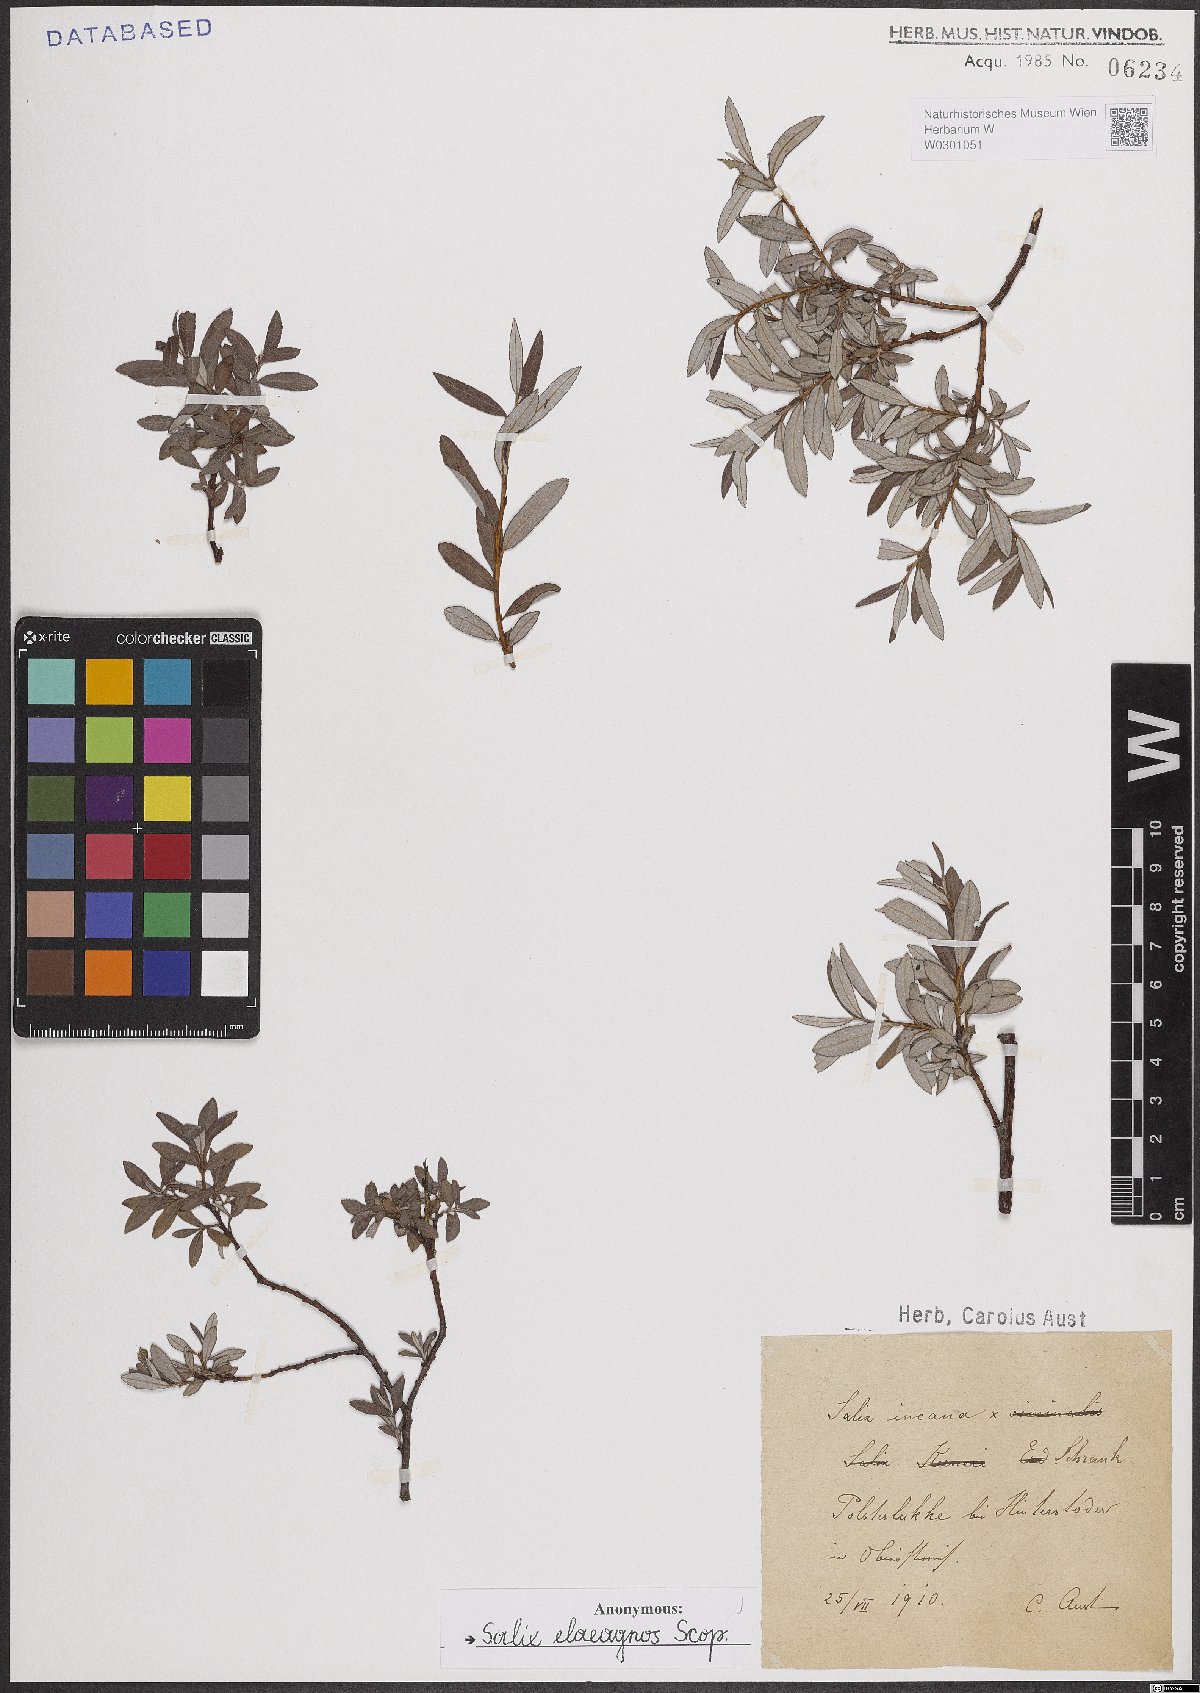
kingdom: Plantae
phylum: Tracheophyta
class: Magnoliopsida
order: Malpighiales
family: Salicaceae
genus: Salix
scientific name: Salix eleagnos
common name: Elaeagnus willow
